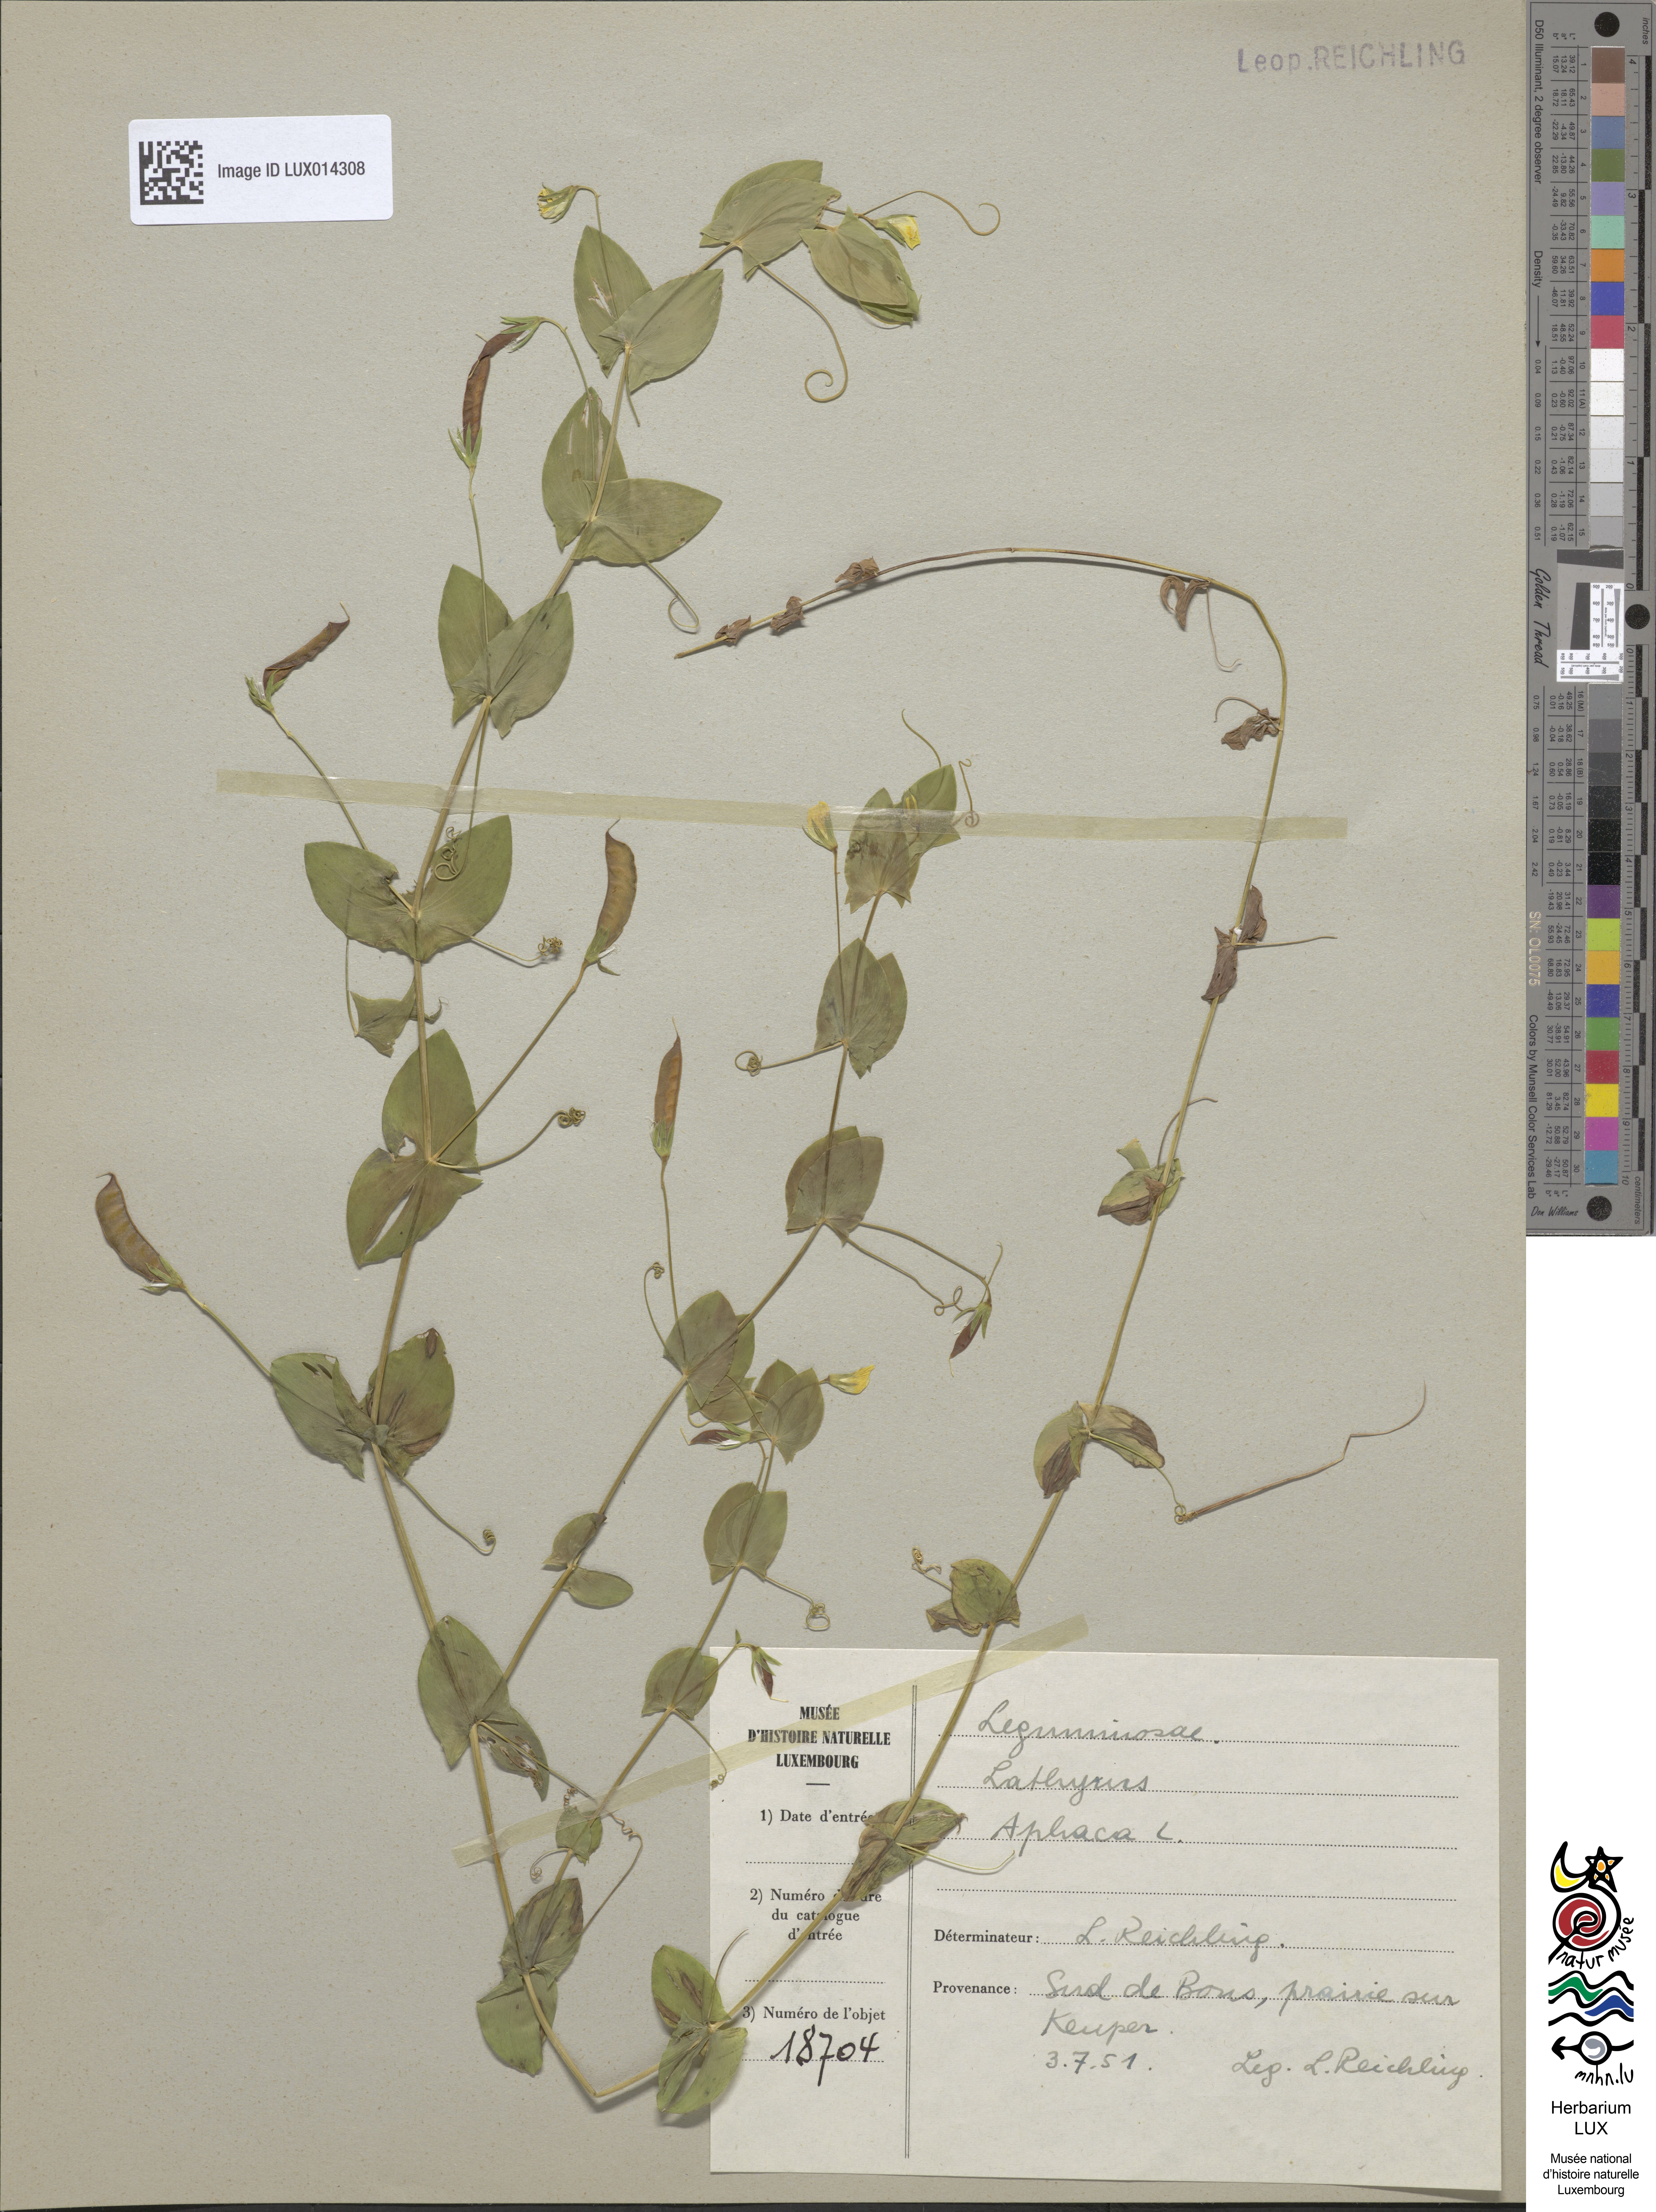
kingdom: Plantae
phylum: Tracheophyta
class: Magnoliopsida
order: Fabales
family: Fabaceae
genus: Lathyrus
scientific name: Lathyrus aphaca
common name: Yellow vetchling
